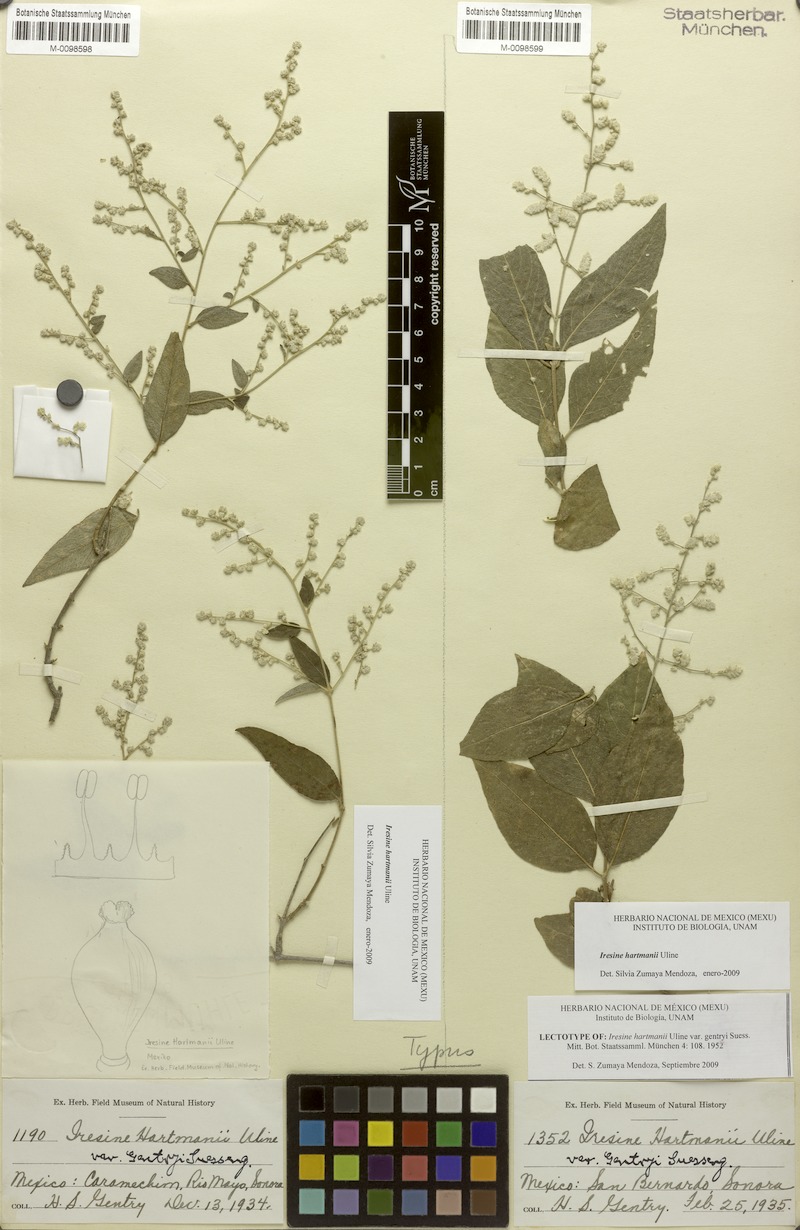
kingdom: Plantae
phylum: Tracheophyta
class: Magnoliopsida
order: Caryophyllales
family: Amaranthaceae
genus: Iresine
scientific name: Iresine hartmanii
